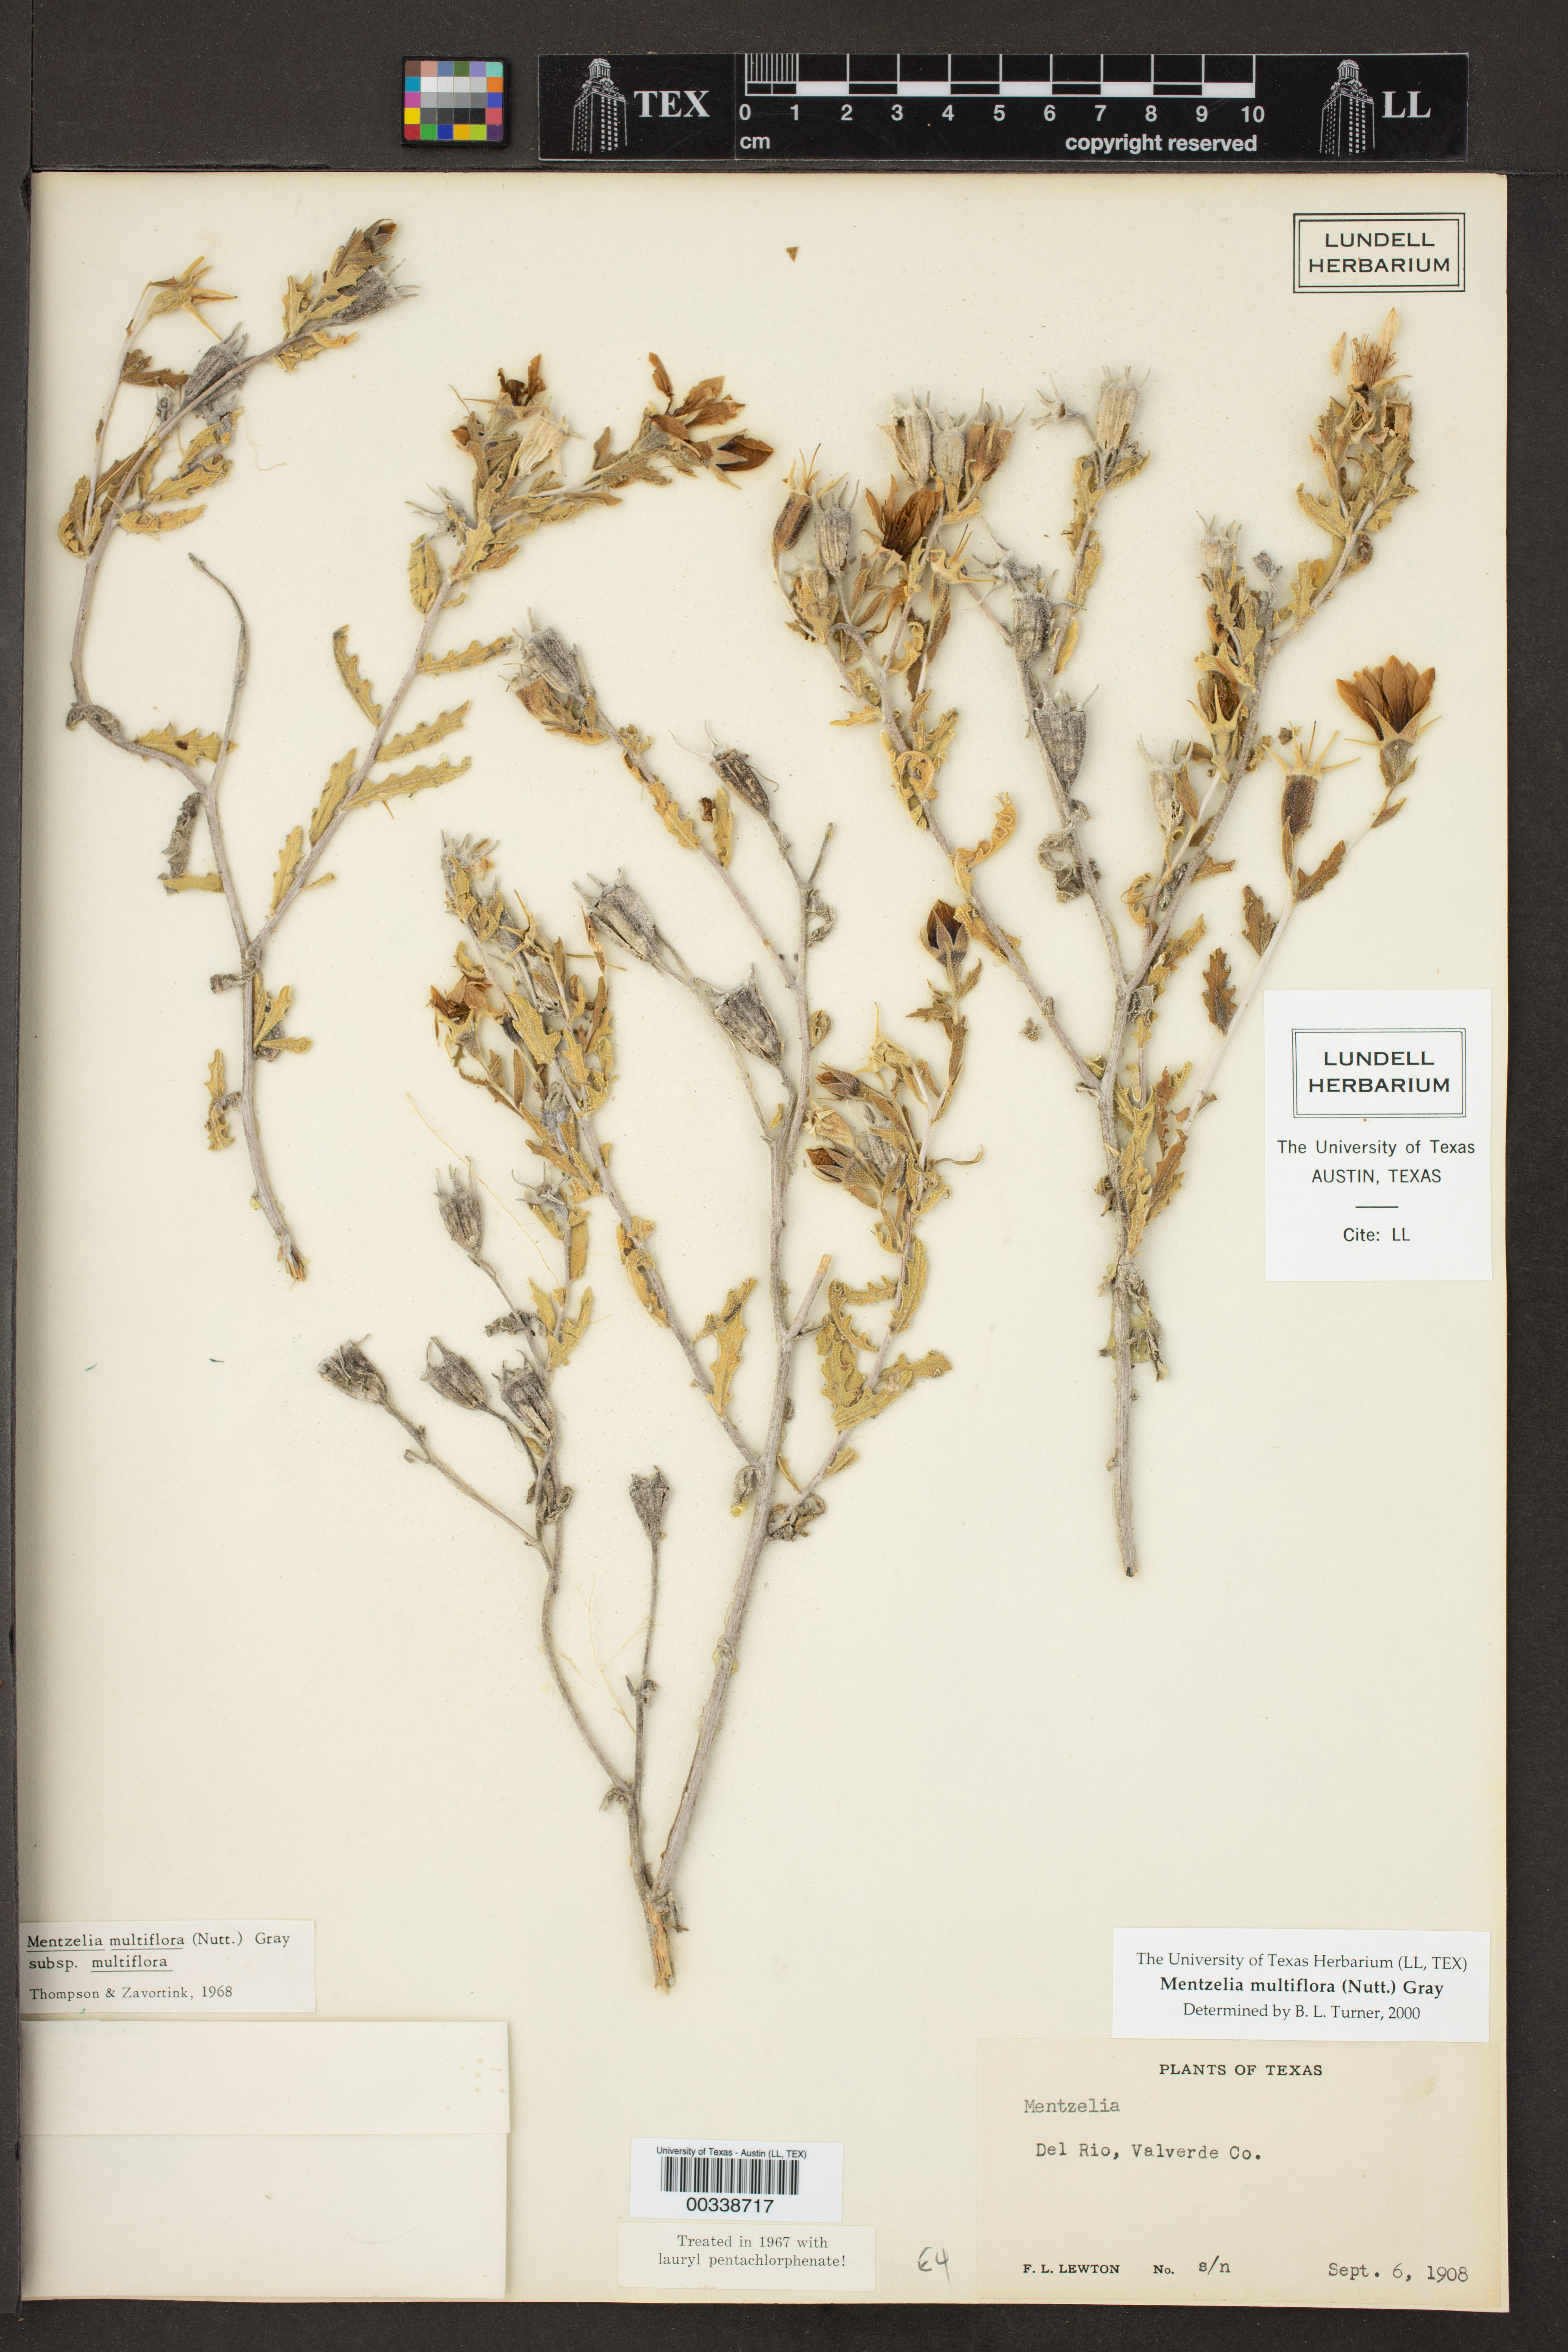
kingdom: Plantae
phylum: Tracheophyta
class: Magnoliopsida
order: Cornales
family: Loasaceae
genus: Mentzelia
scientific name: Mentzelia multiflora
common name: Adonis blazingstar
